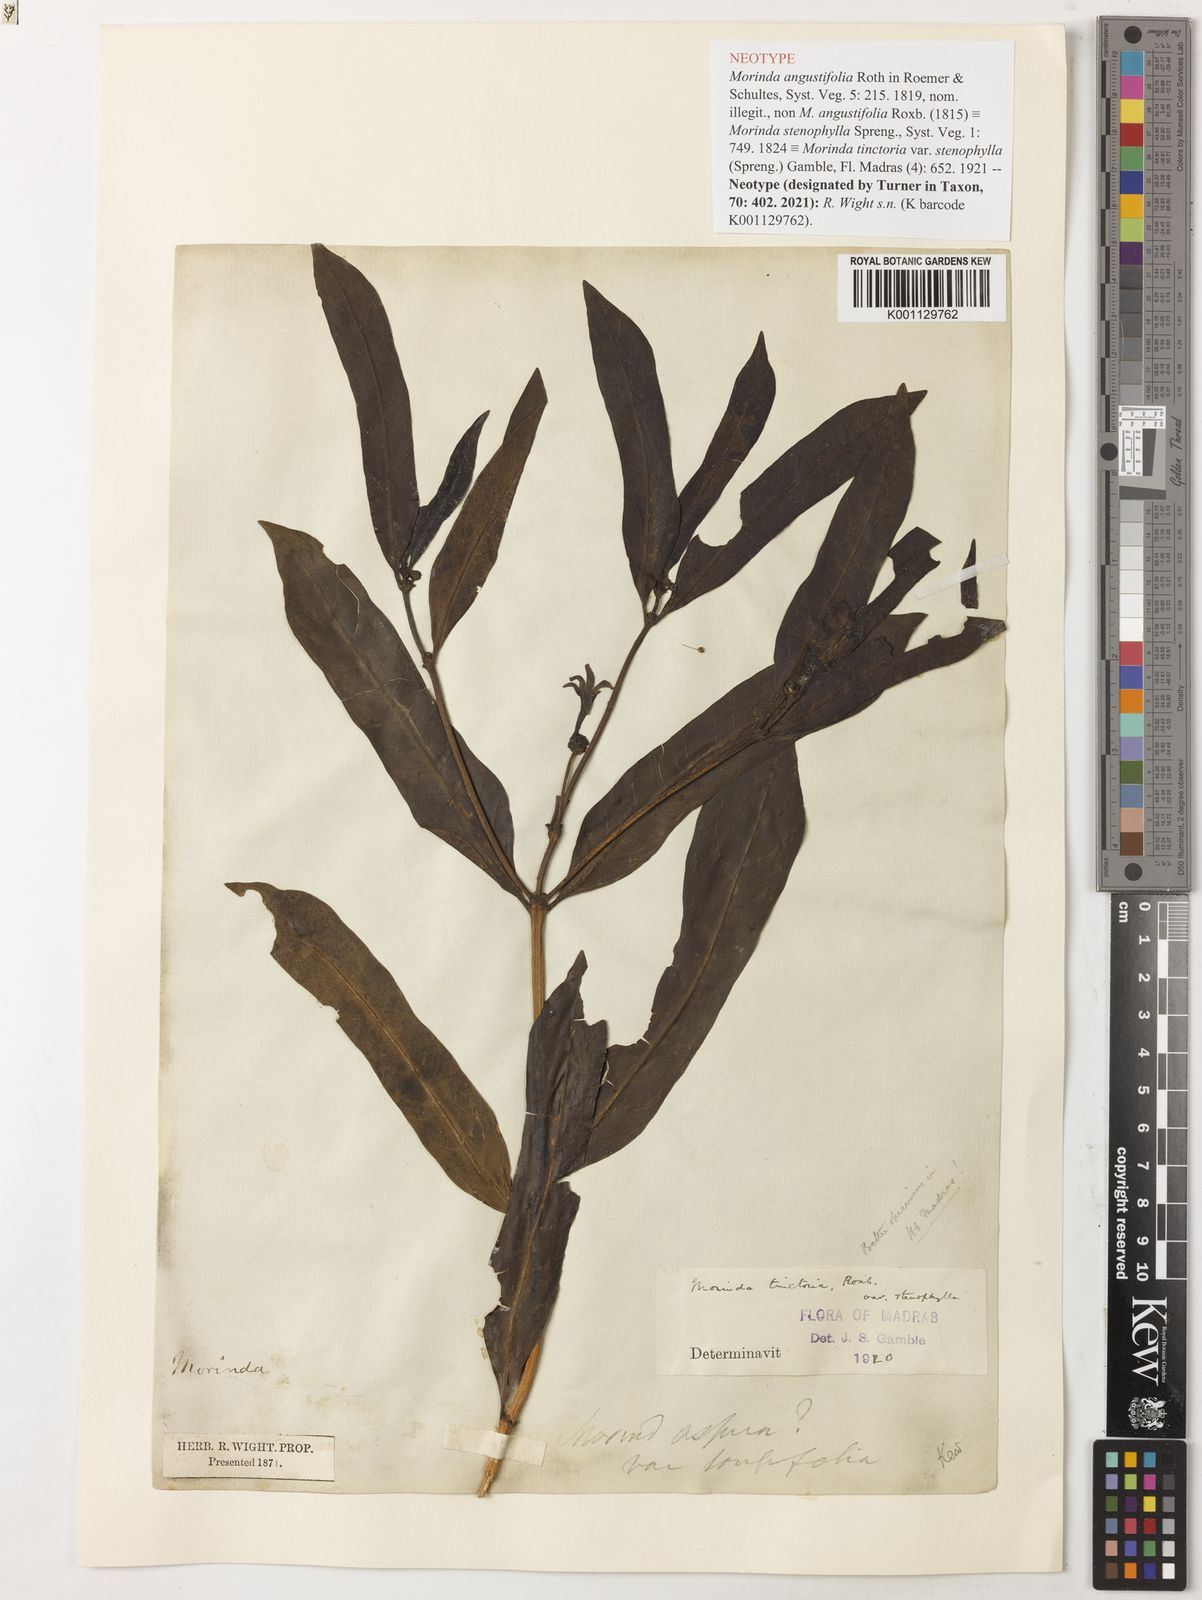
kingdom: Plantae
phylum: Tracheophyta
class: Magnoliopsida
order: Gentianales
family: Rubiaceae
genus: Morinda
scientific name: Morinda coreia
